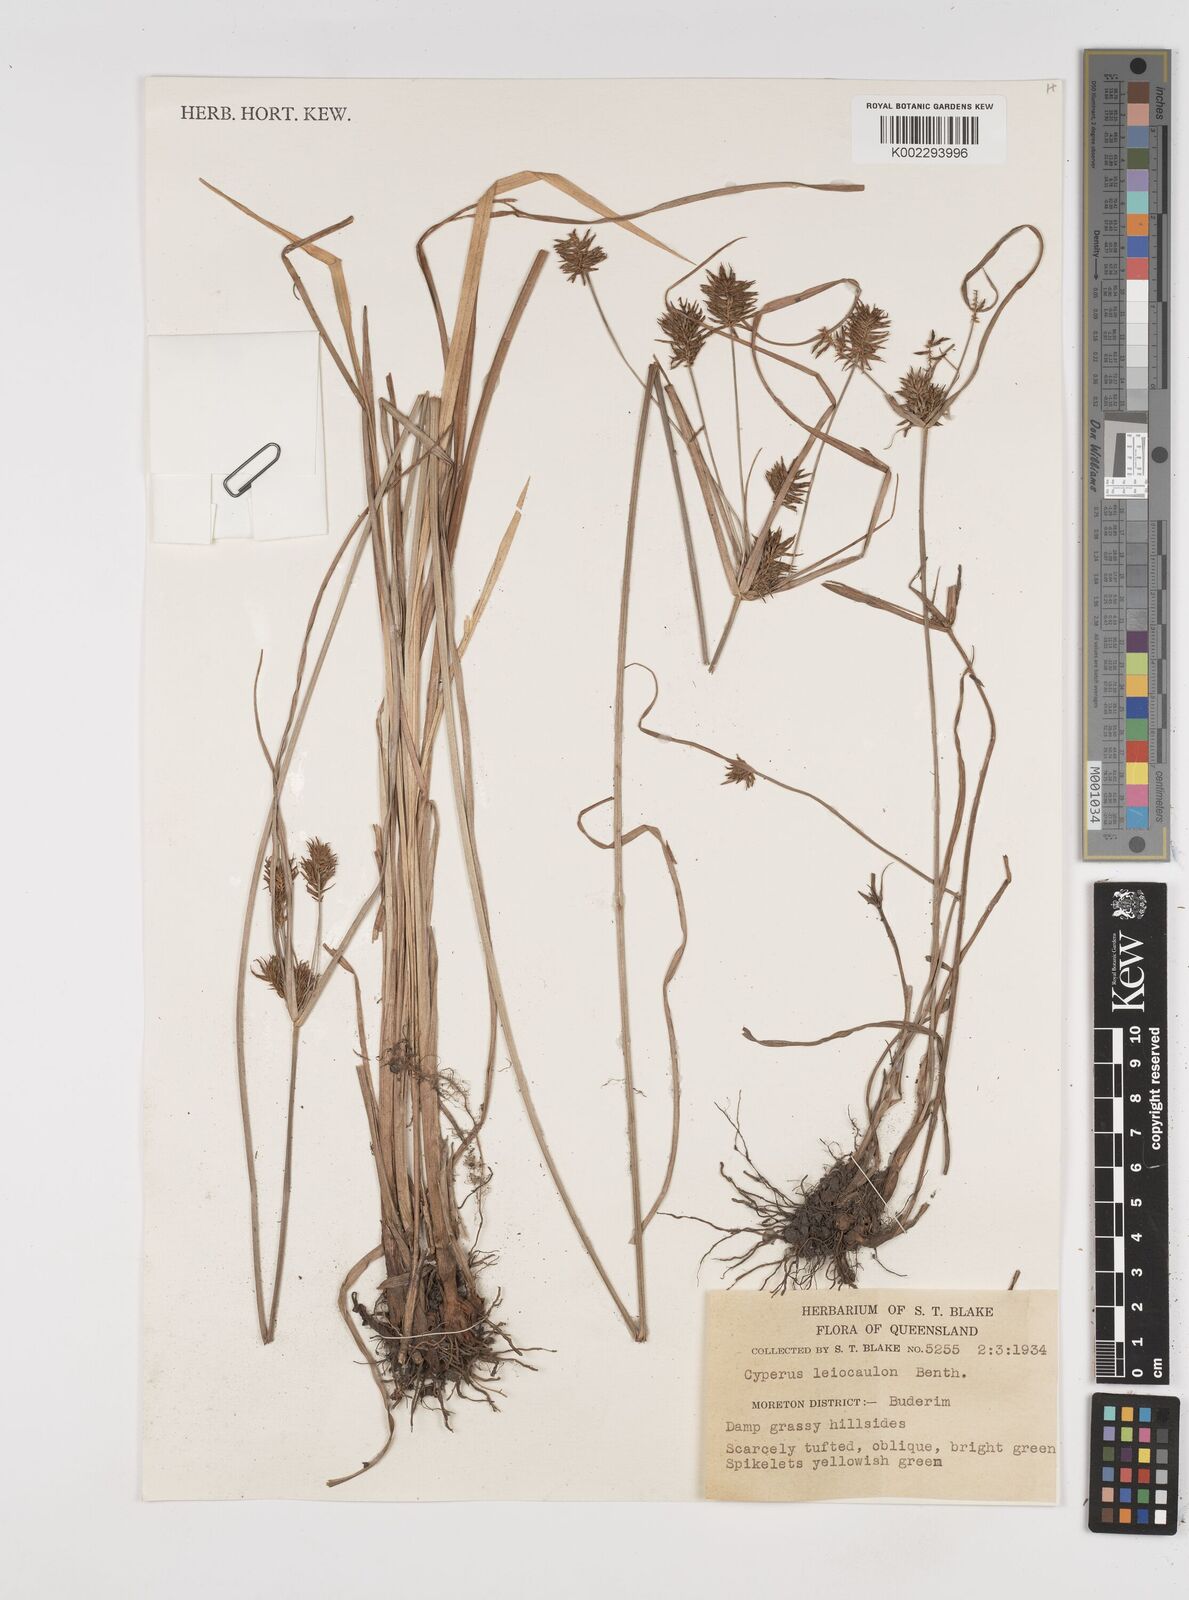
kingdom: Plantae
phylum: Tracheophyta
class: Liliopsida
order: Poales
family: Cyperaceae
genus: Cyperus
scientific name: Cyperus leiocaulon
